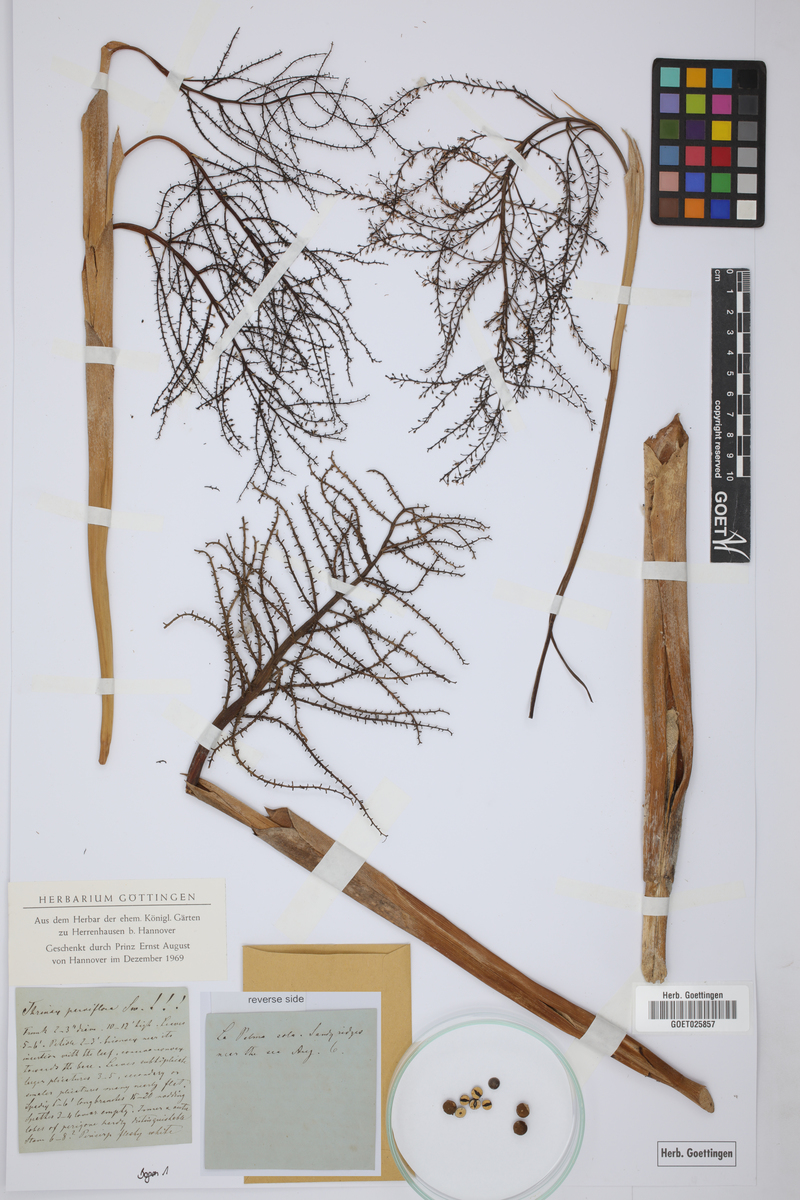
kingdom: Plantae
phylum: Tracheophyta
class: Liliopsida
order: Arecales
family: Arecaceae
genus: Thrinax
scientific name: Thrinax parviflora
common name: Broom palm
